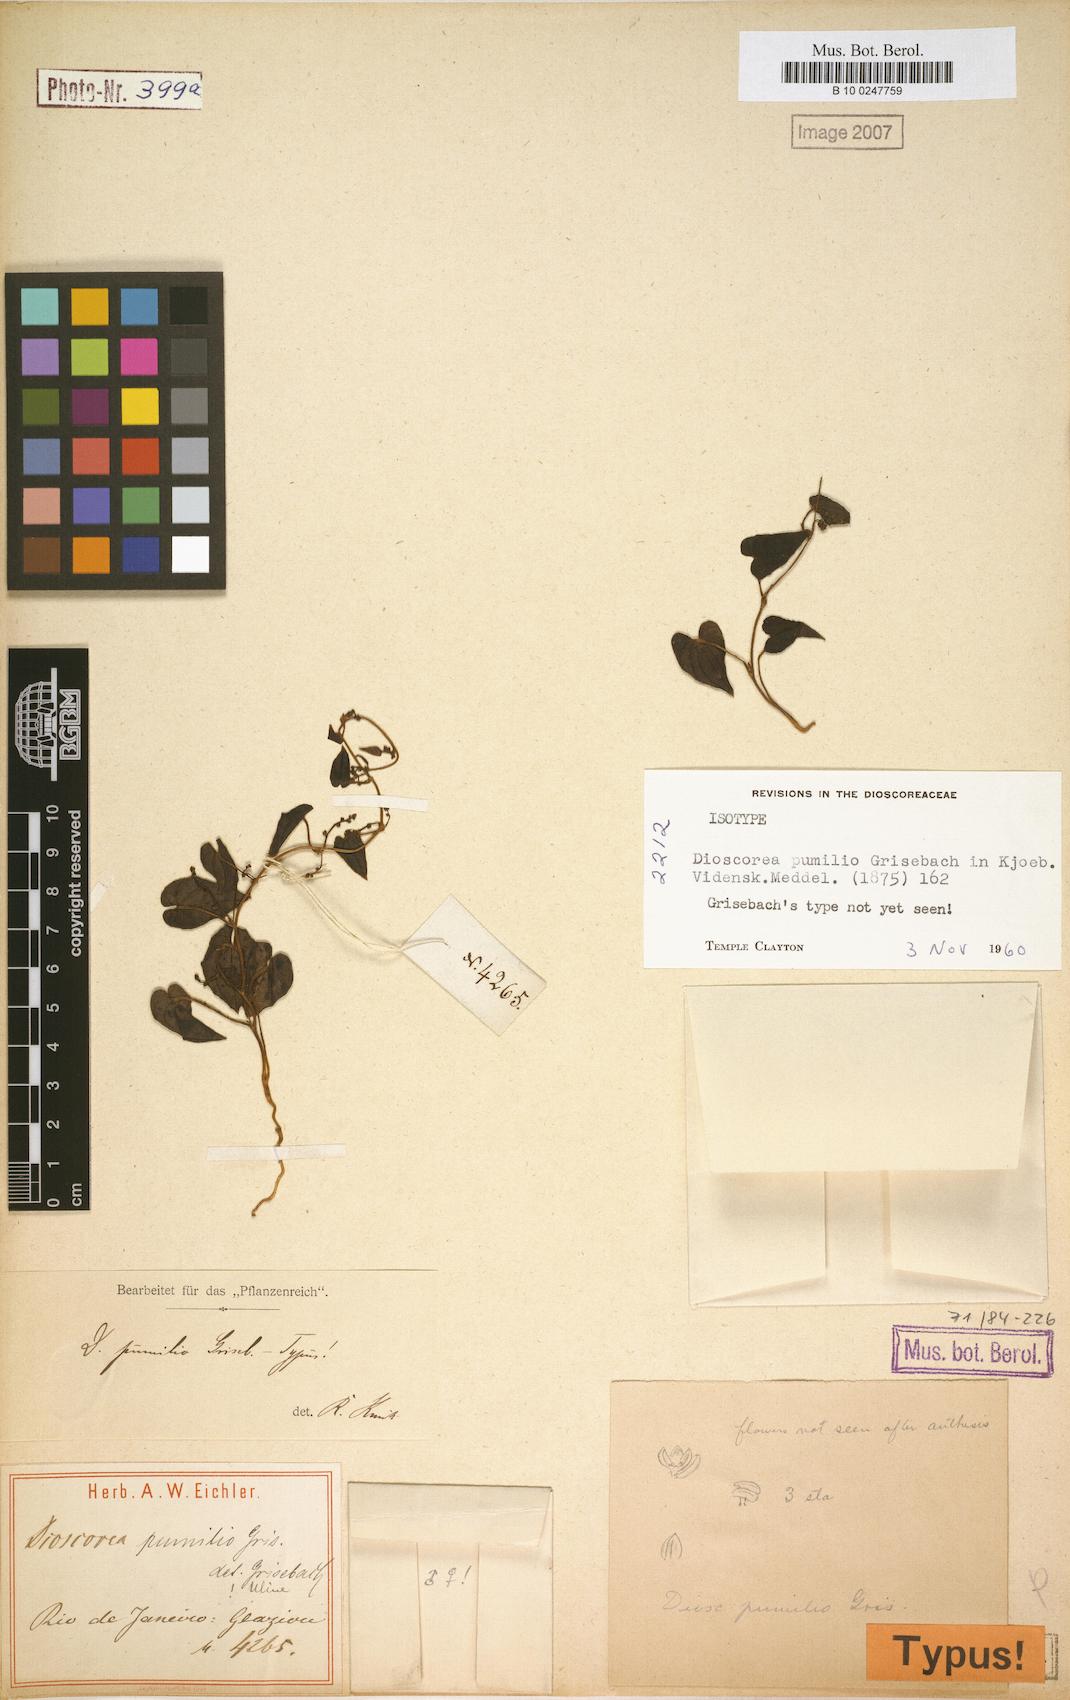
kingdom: Plantae
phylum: Tracheophyta
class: Liliopsida
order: Dioscoreales
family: Dioscoreaceae
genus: Dioscorea
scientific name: Dioscorea pumilio
